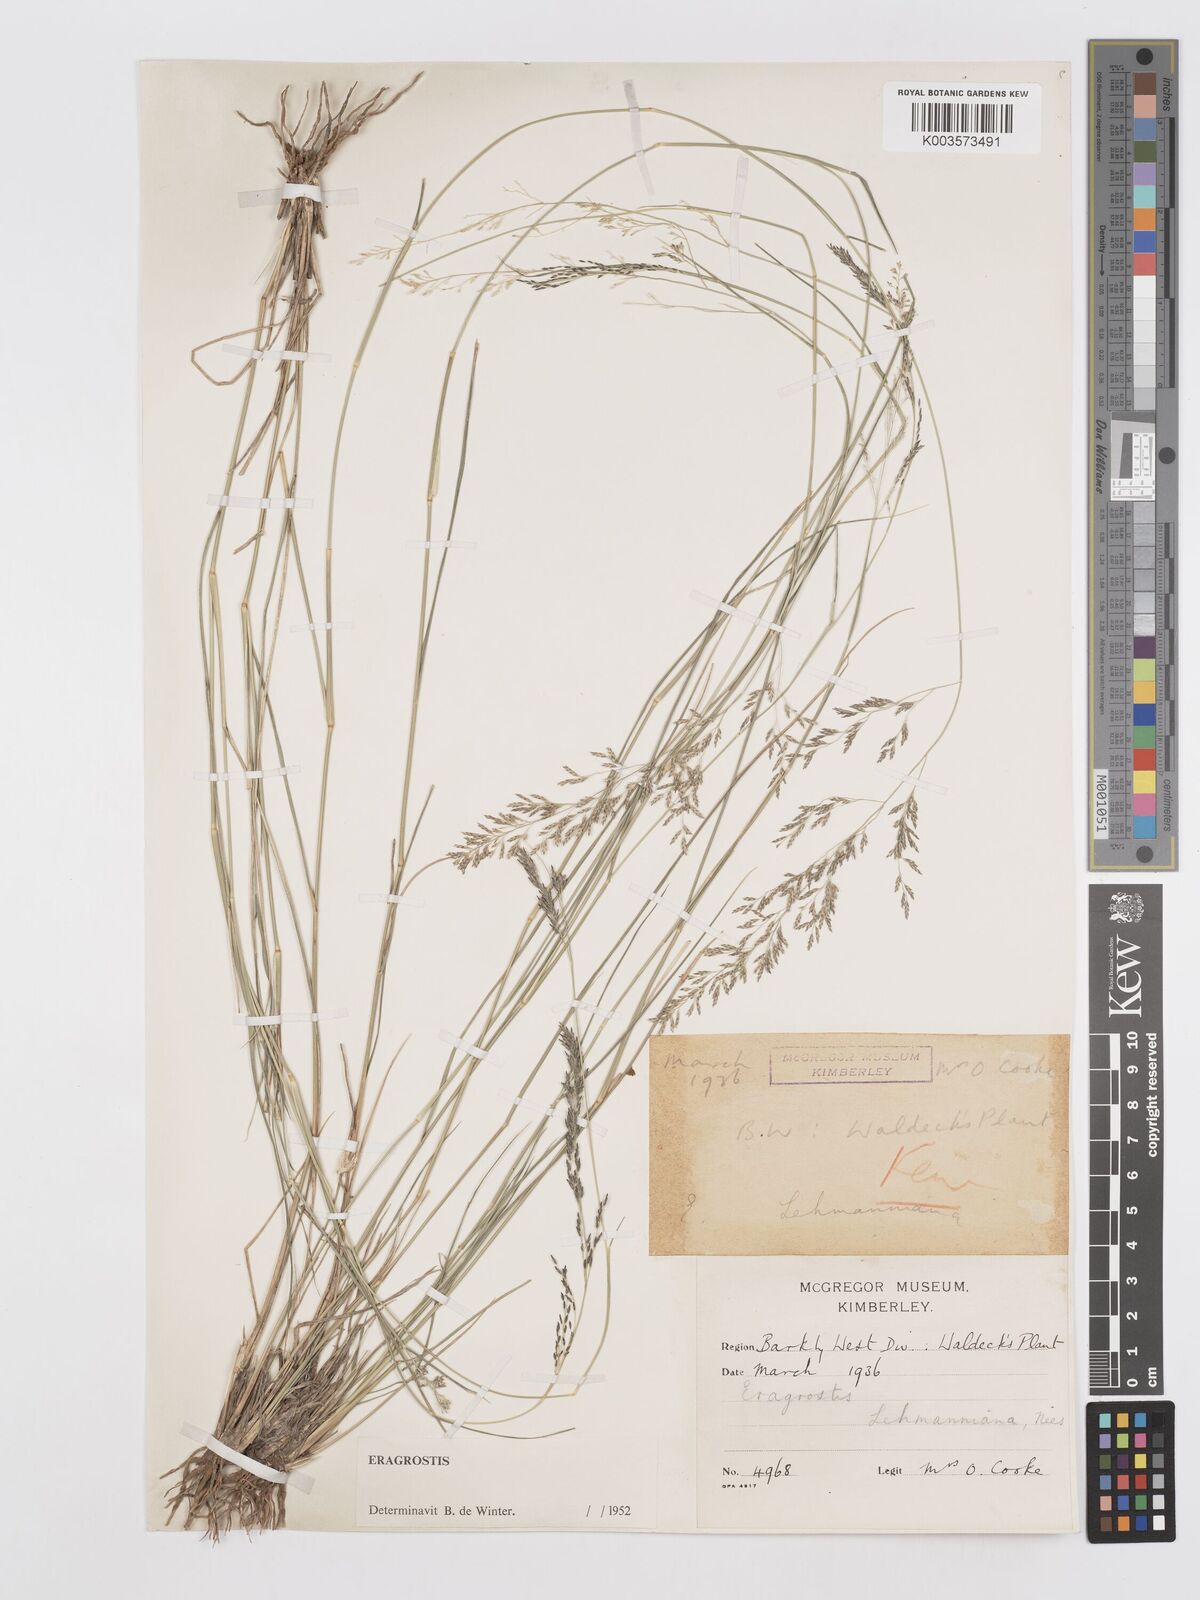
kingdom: Plantae
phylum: Tracheophyta
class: Liliopsida
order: Poales
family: Poaceae
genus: Eragrostis
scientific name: Eragrostis lehmanniana
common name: Lehmann lovegrass
